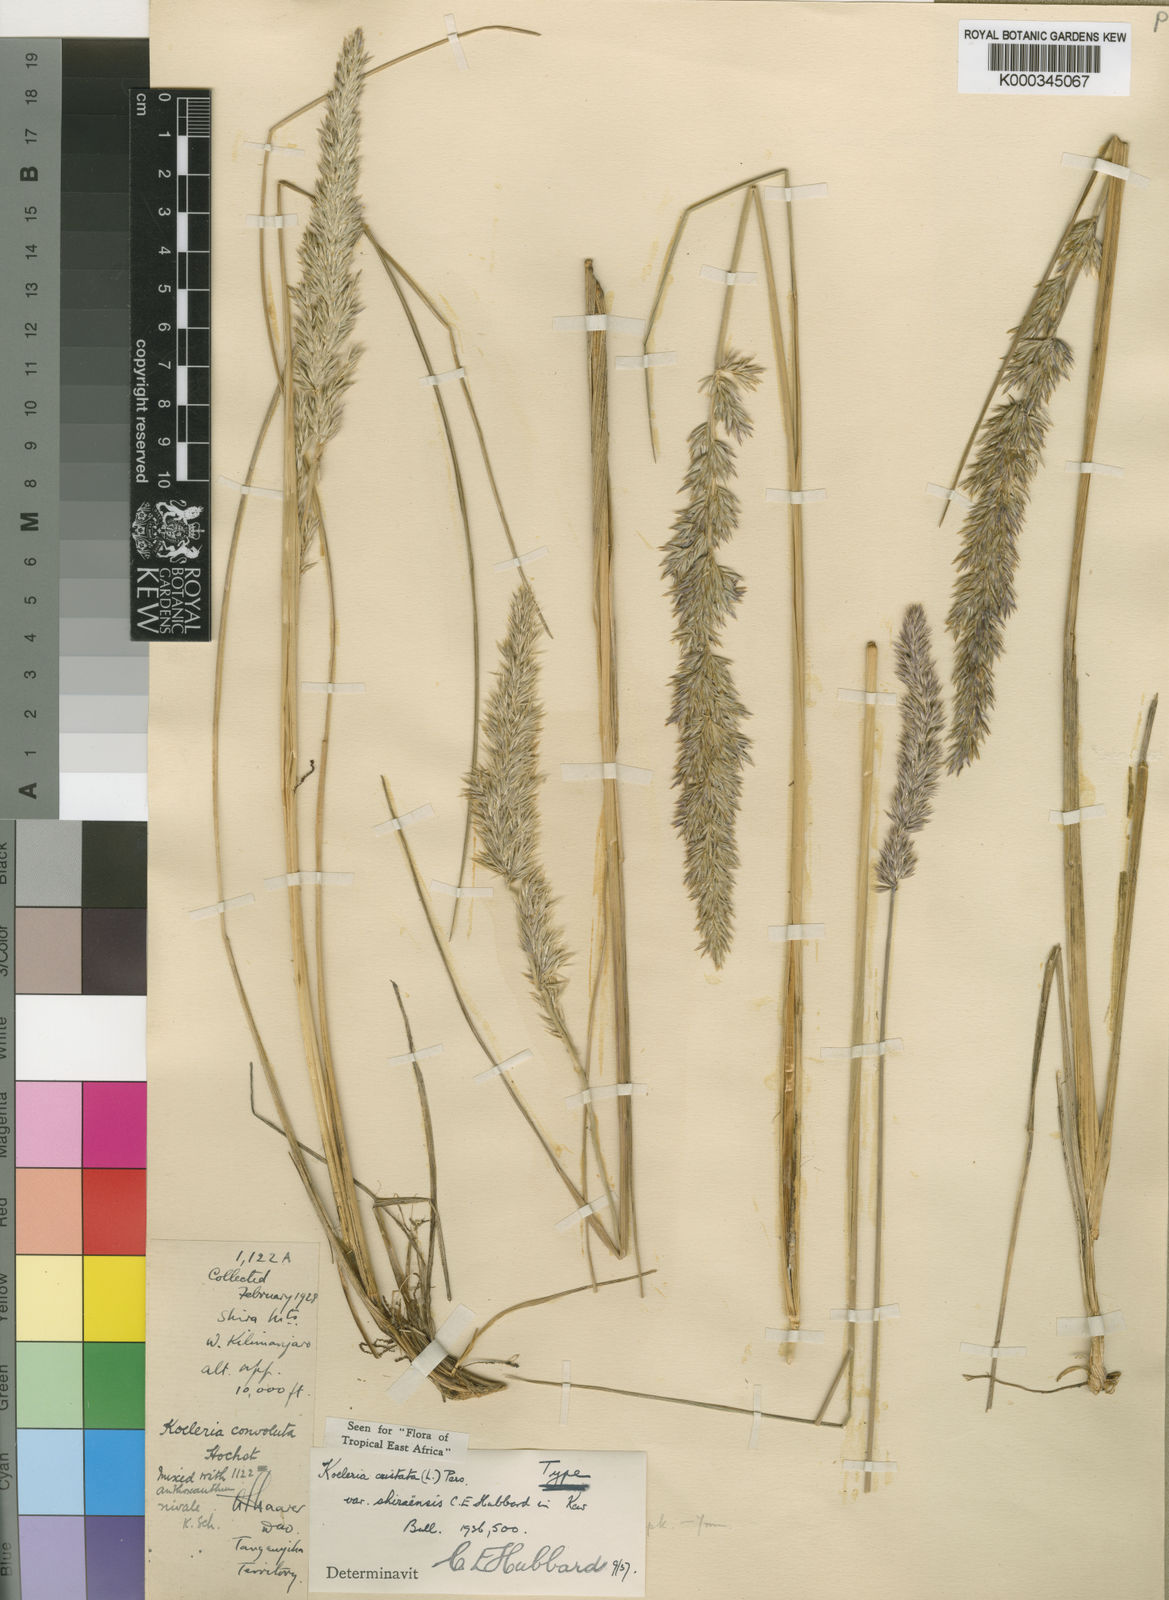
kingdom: Plantae
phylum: Tracheophyta
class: Liliopsida
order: Poales
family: Poaceae
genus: Koeleria
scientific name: Koeleria capensis
